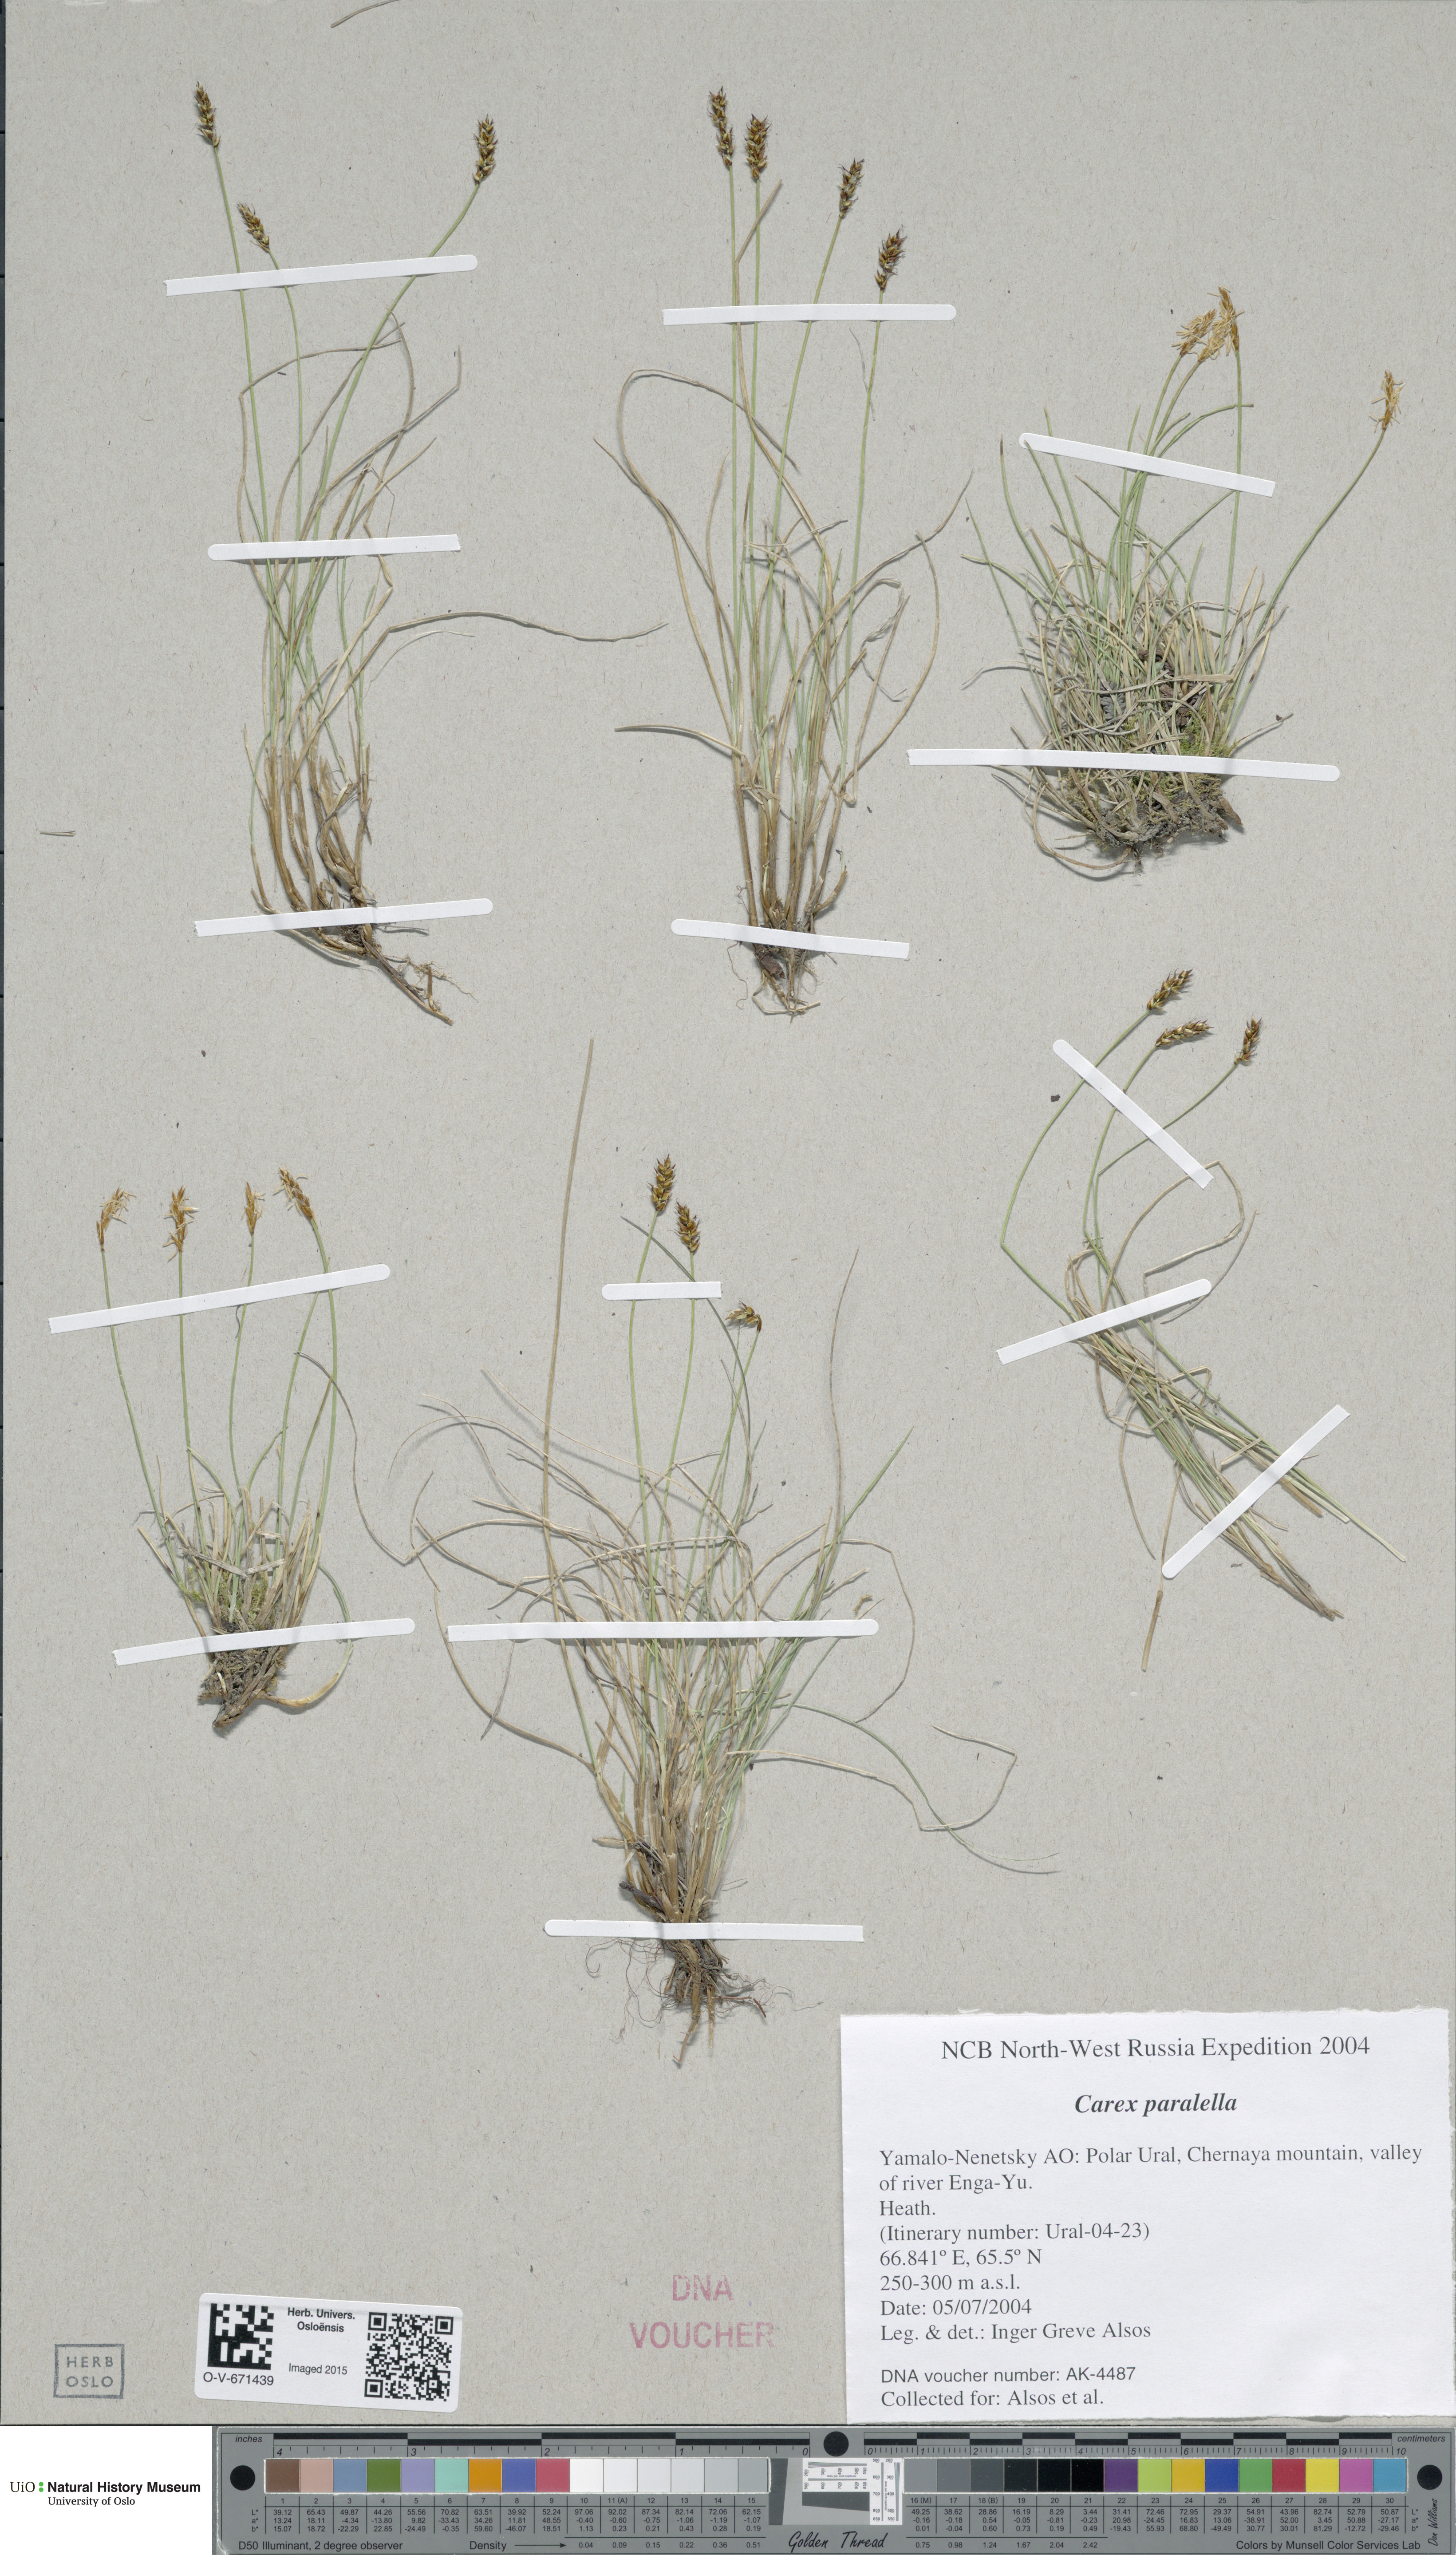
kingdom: Plantae
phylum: Tracheophyta
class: Liliopsida
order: Poales
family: Cyperaceae
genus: Carex
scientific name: Carex parallela
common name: Parallel sedge
